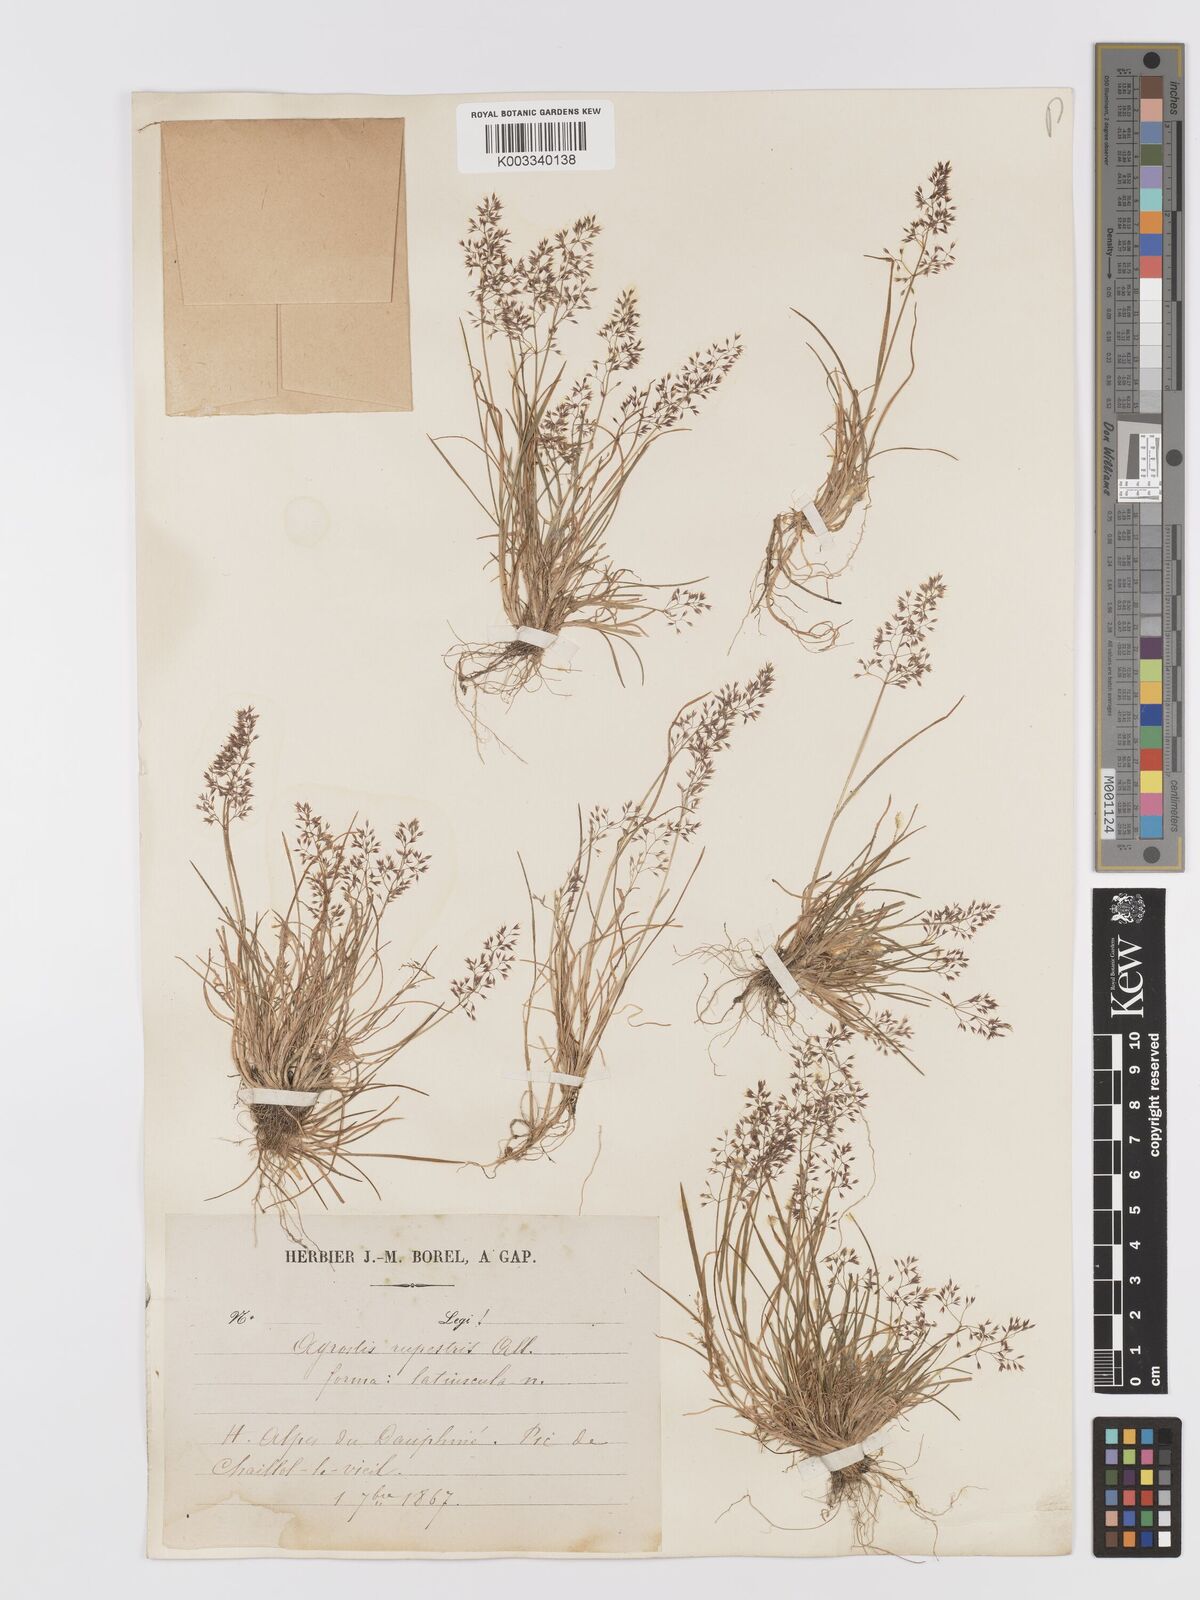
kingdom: Plantae
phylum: Tracheophyta
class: Liliopsida
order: Poales
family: Poaceae
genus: Agrostis
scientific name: Agrostis rupestris
